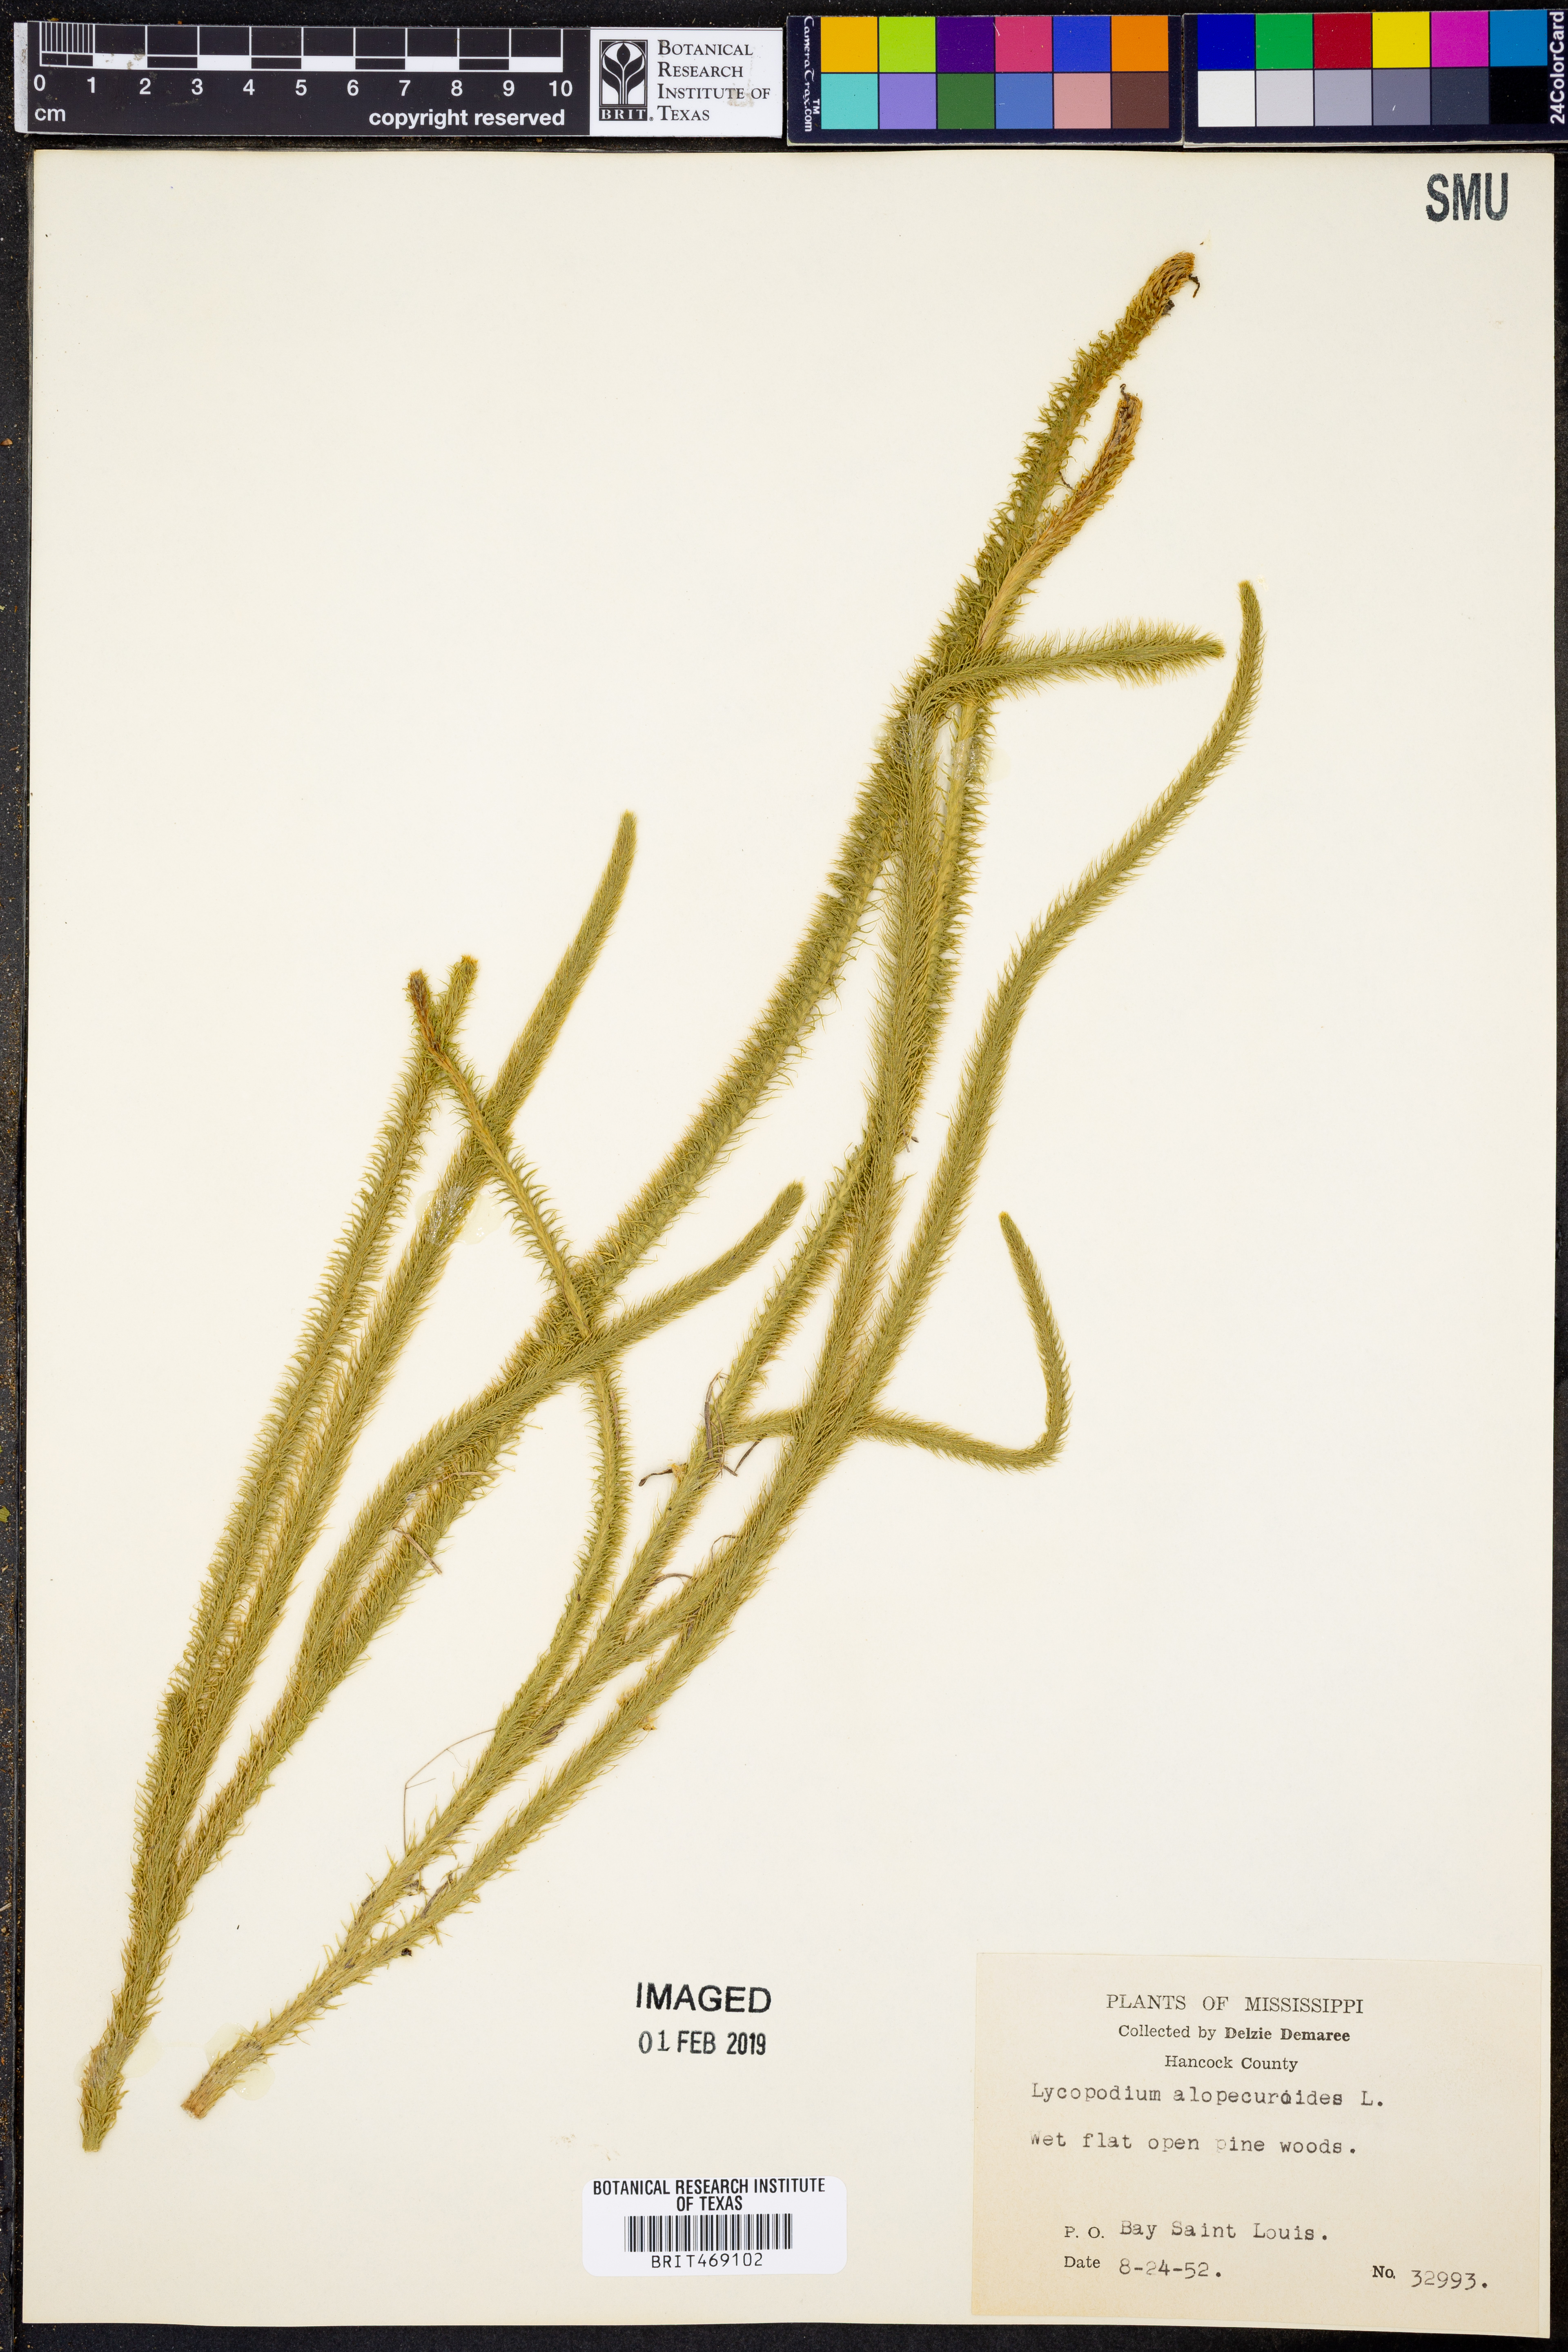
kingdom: Plantae
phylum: Tracheophyta
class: Lycopodiopsida
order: Lycopodiales
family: Lycopodiaceae
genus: Lycopodiella
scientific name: Lycopodiella alopecuroides
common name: Foxtail clubmoss
